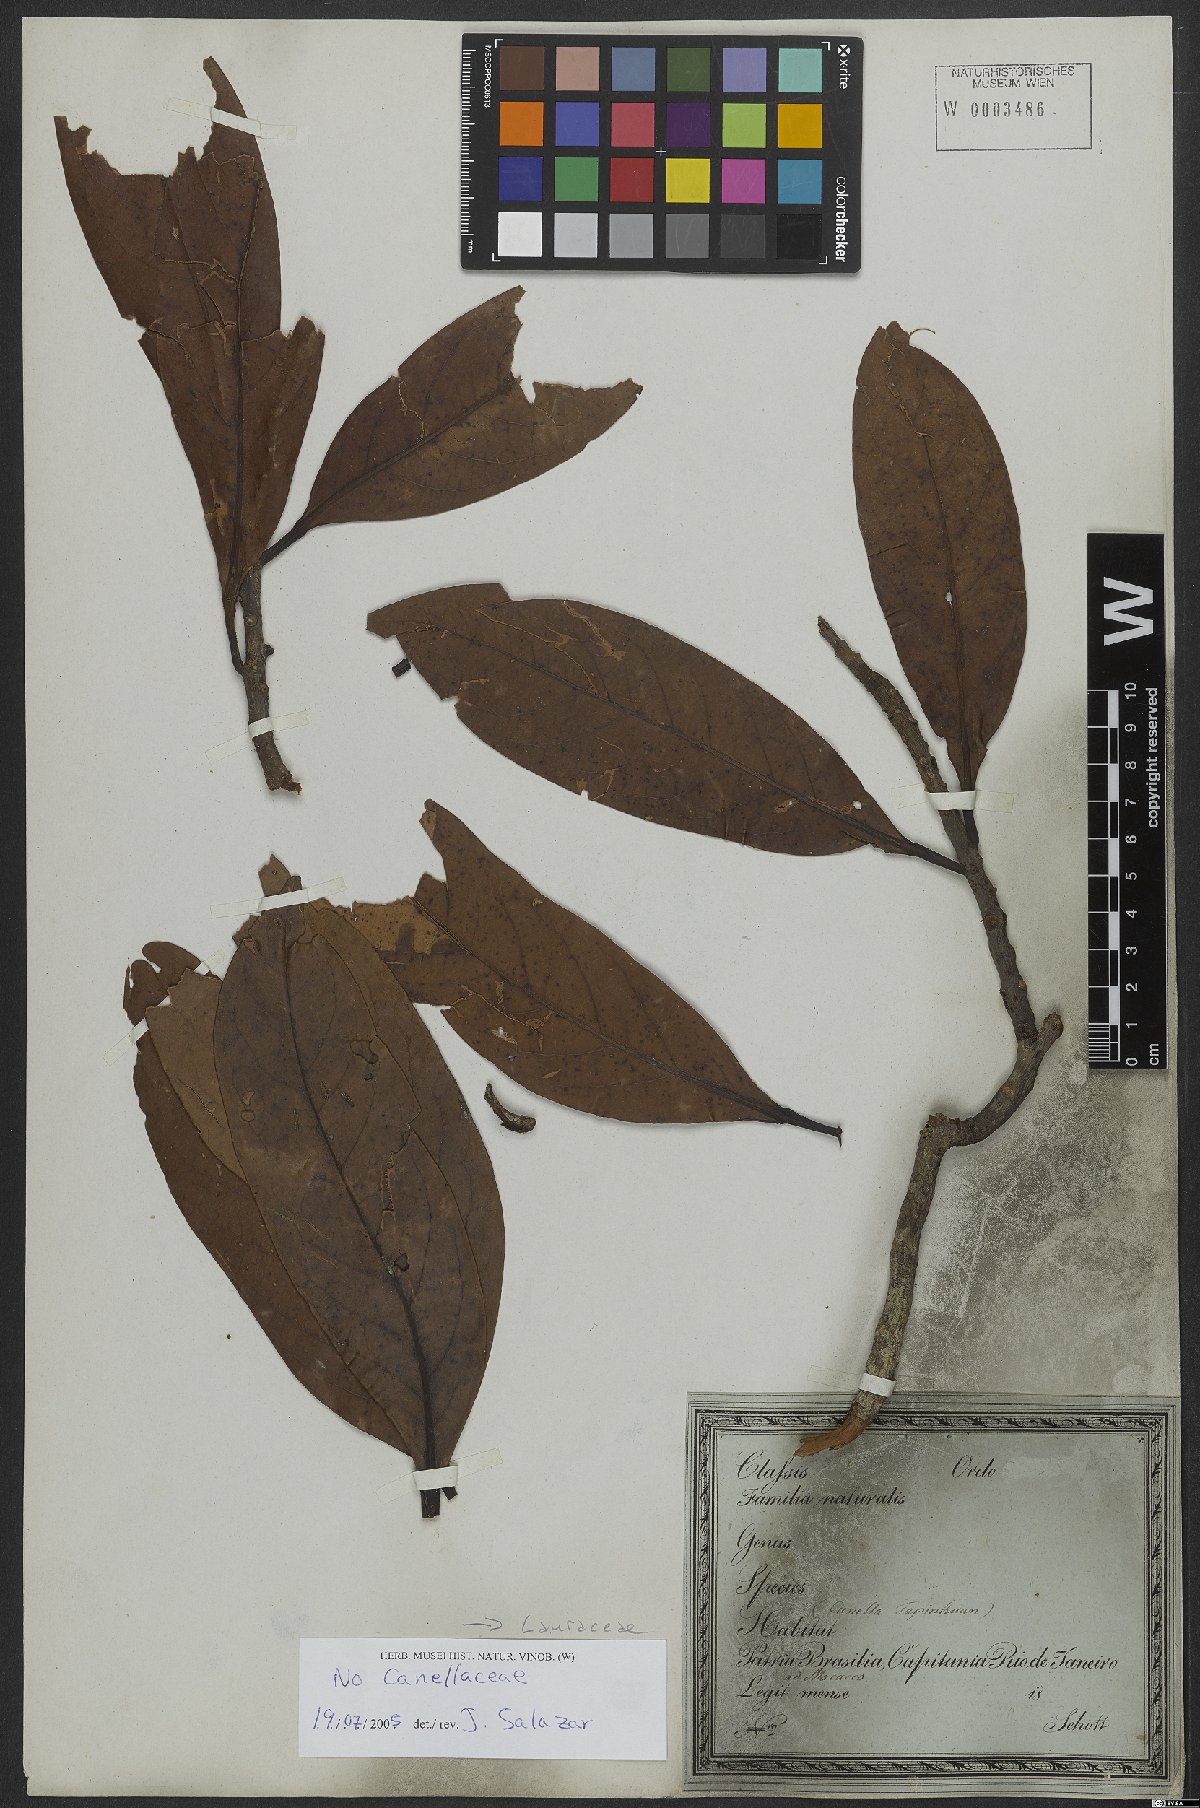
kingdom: Plantae
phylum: Tracheophyta
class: Magnoliopsida
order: Laurales
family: Lauraceae
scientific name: Lauraceae
